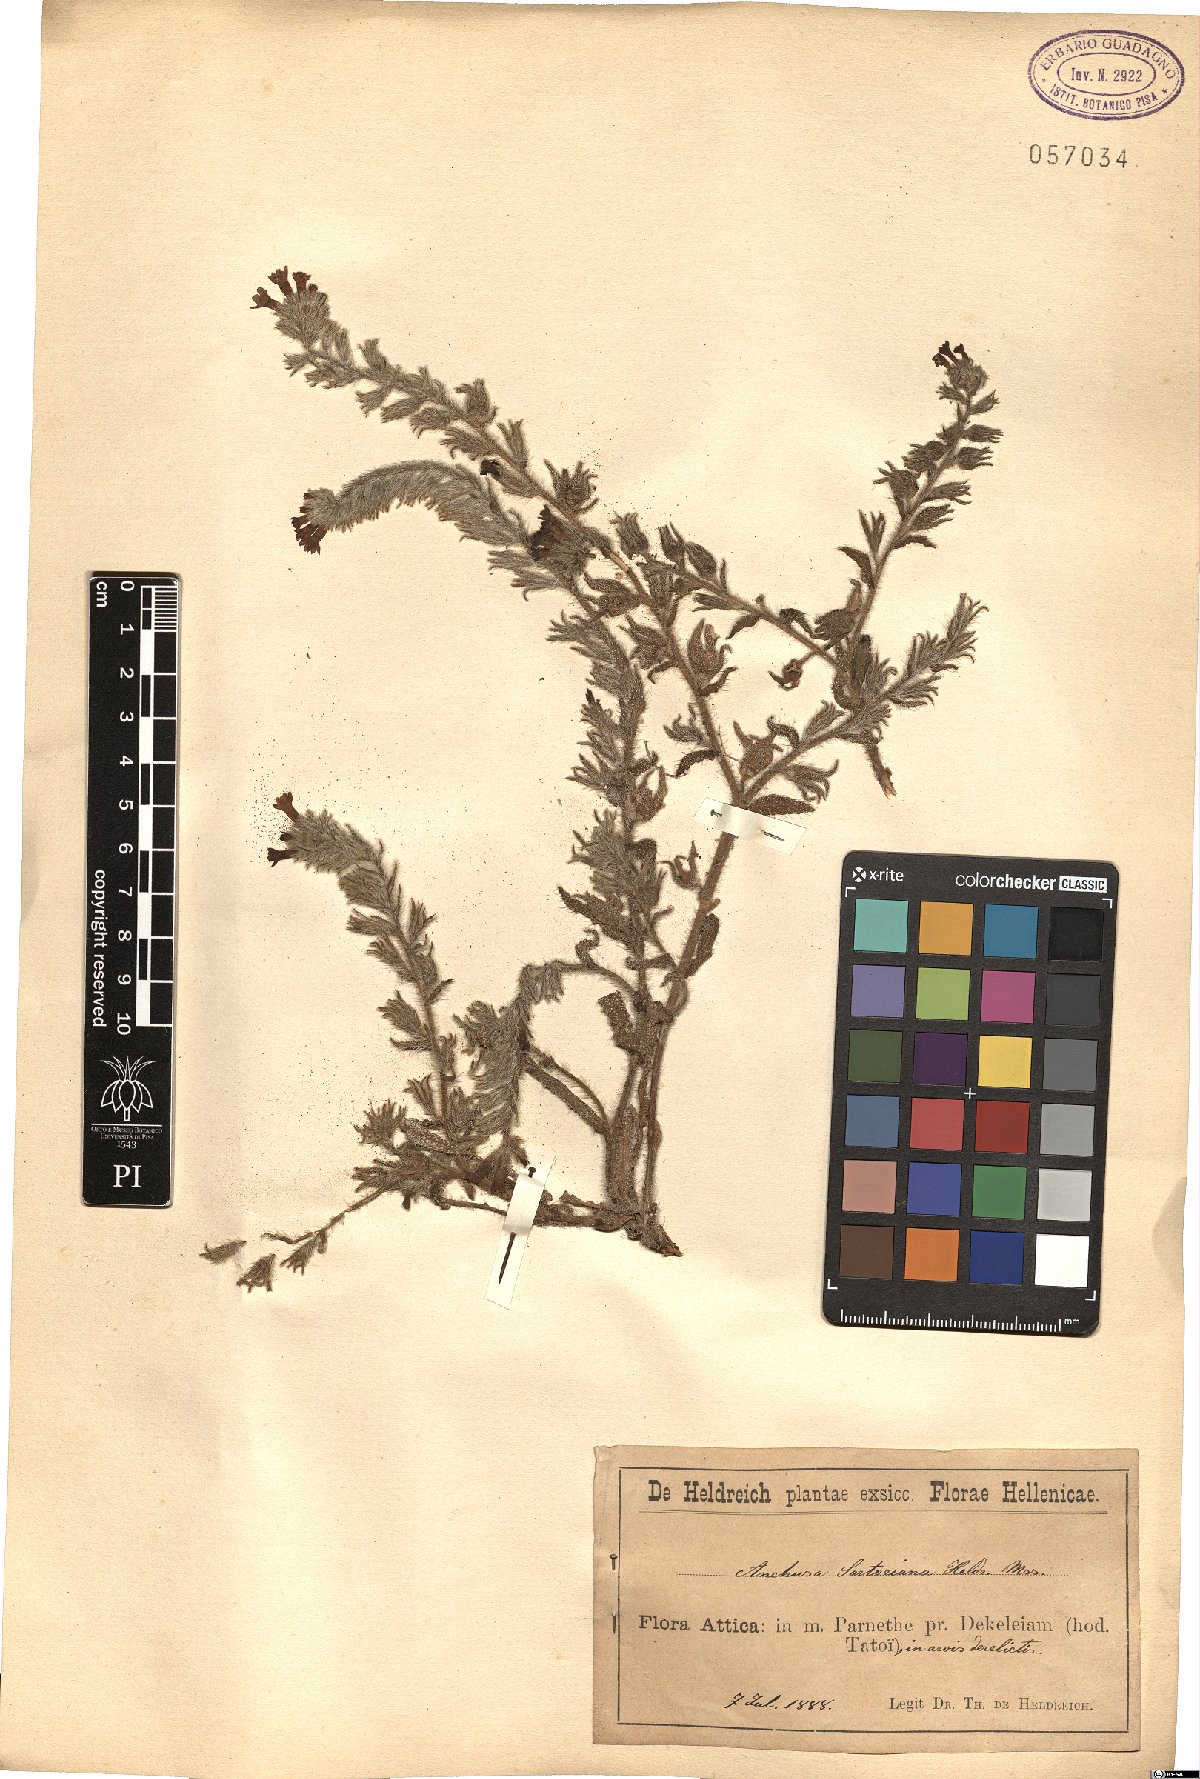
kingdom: Plantae
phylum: Tracheophyta
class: Magnoliopsida
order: Boraginales
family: Boraginaceae
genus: Anchusa
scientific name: Anchusa undulata
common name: Undulate alkanet
